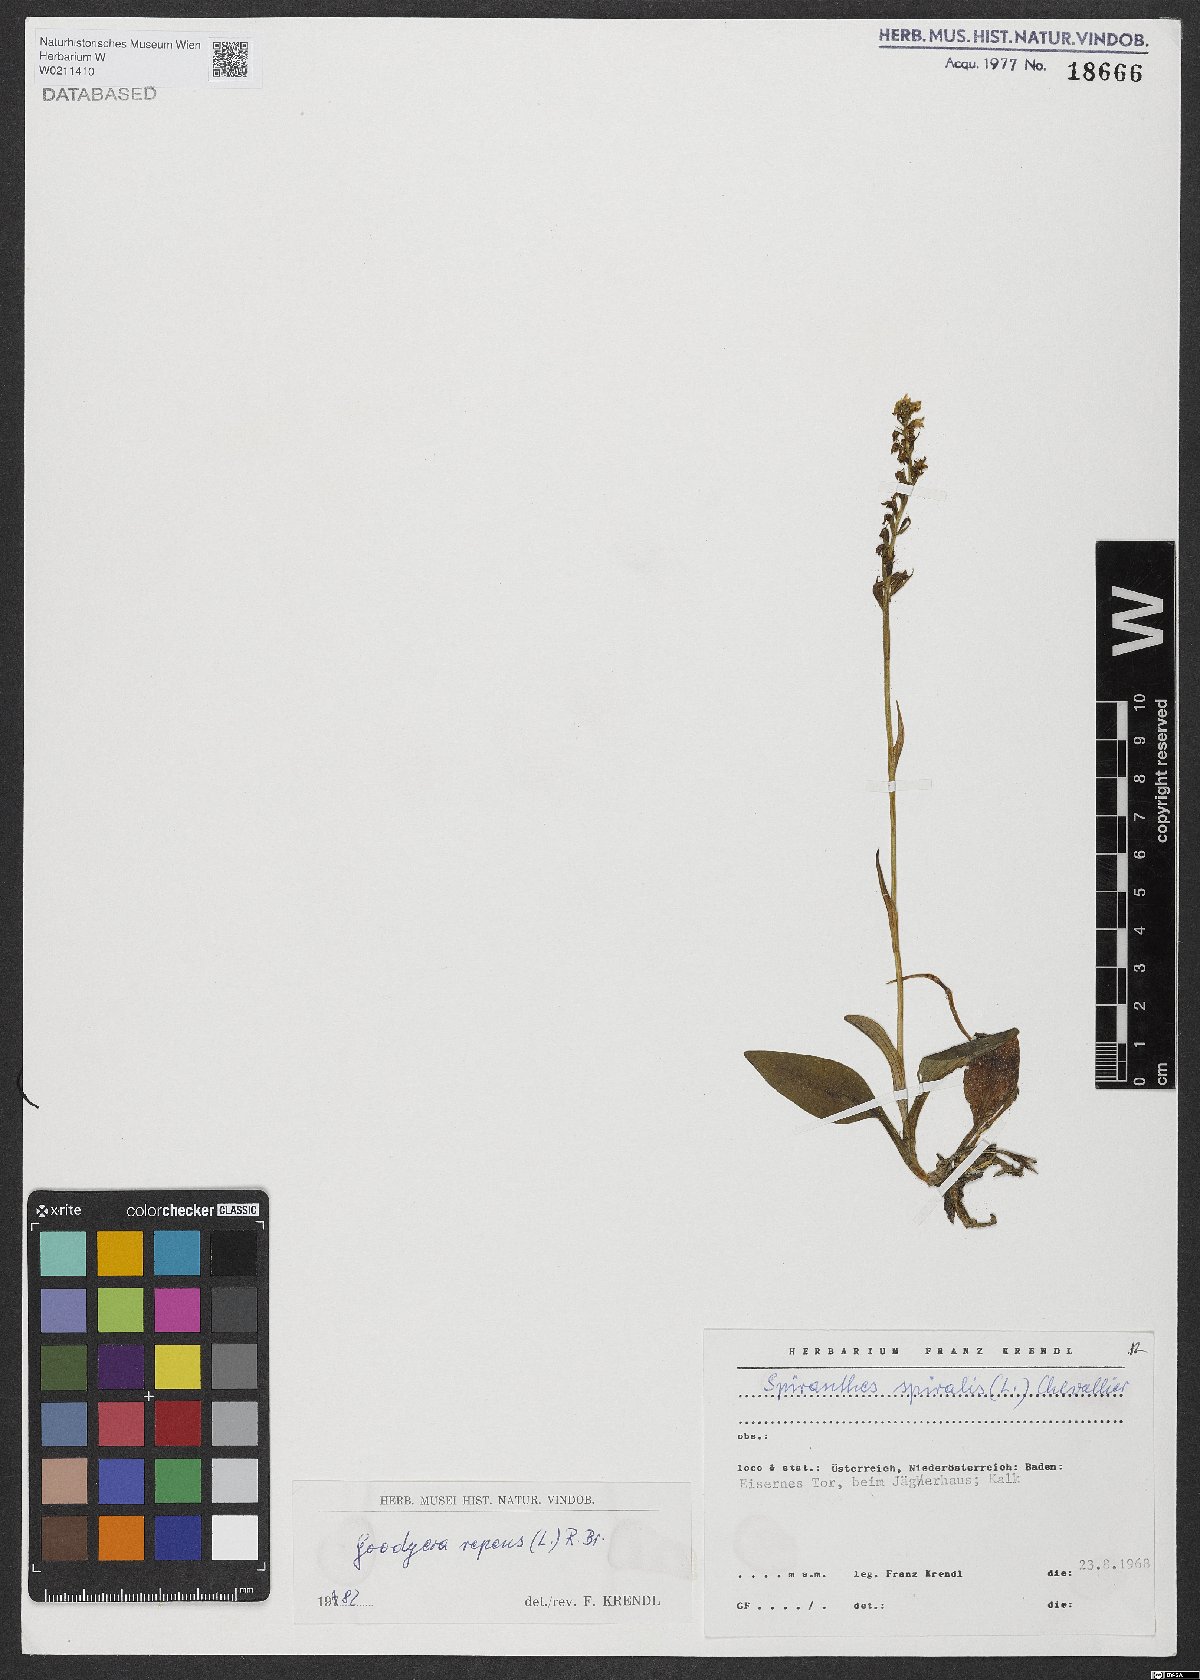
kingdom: Plantae
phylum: Tracheophyta
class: Liliopsida
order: Asparagales
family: Orchidaceae
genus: Goodyera
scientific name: Goodyera repens
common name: Creeping lady's-tresses
